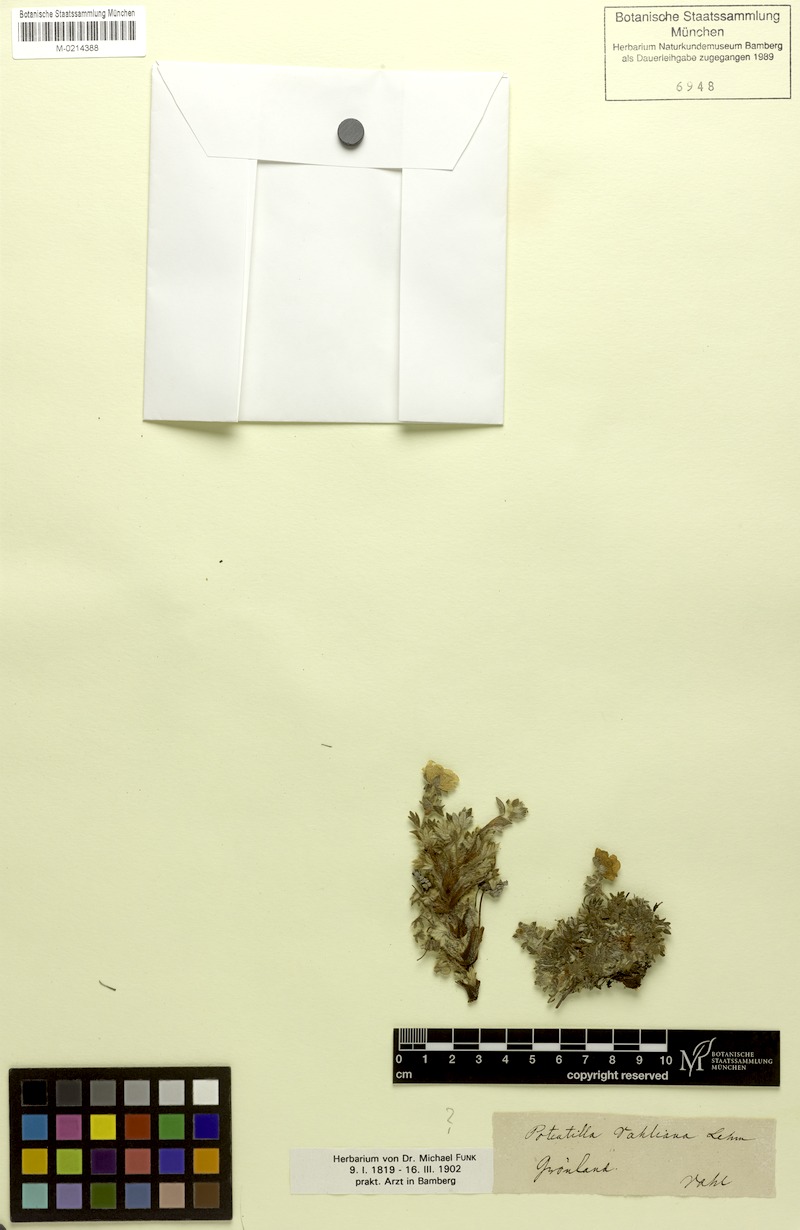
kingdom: Plantae
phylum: Tracheophyta
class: Magnoliopsida
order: Rosales
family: Rosaceae
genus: Potentilla
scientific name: Potentilla vahliana
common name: Vahl's cinquefoil
